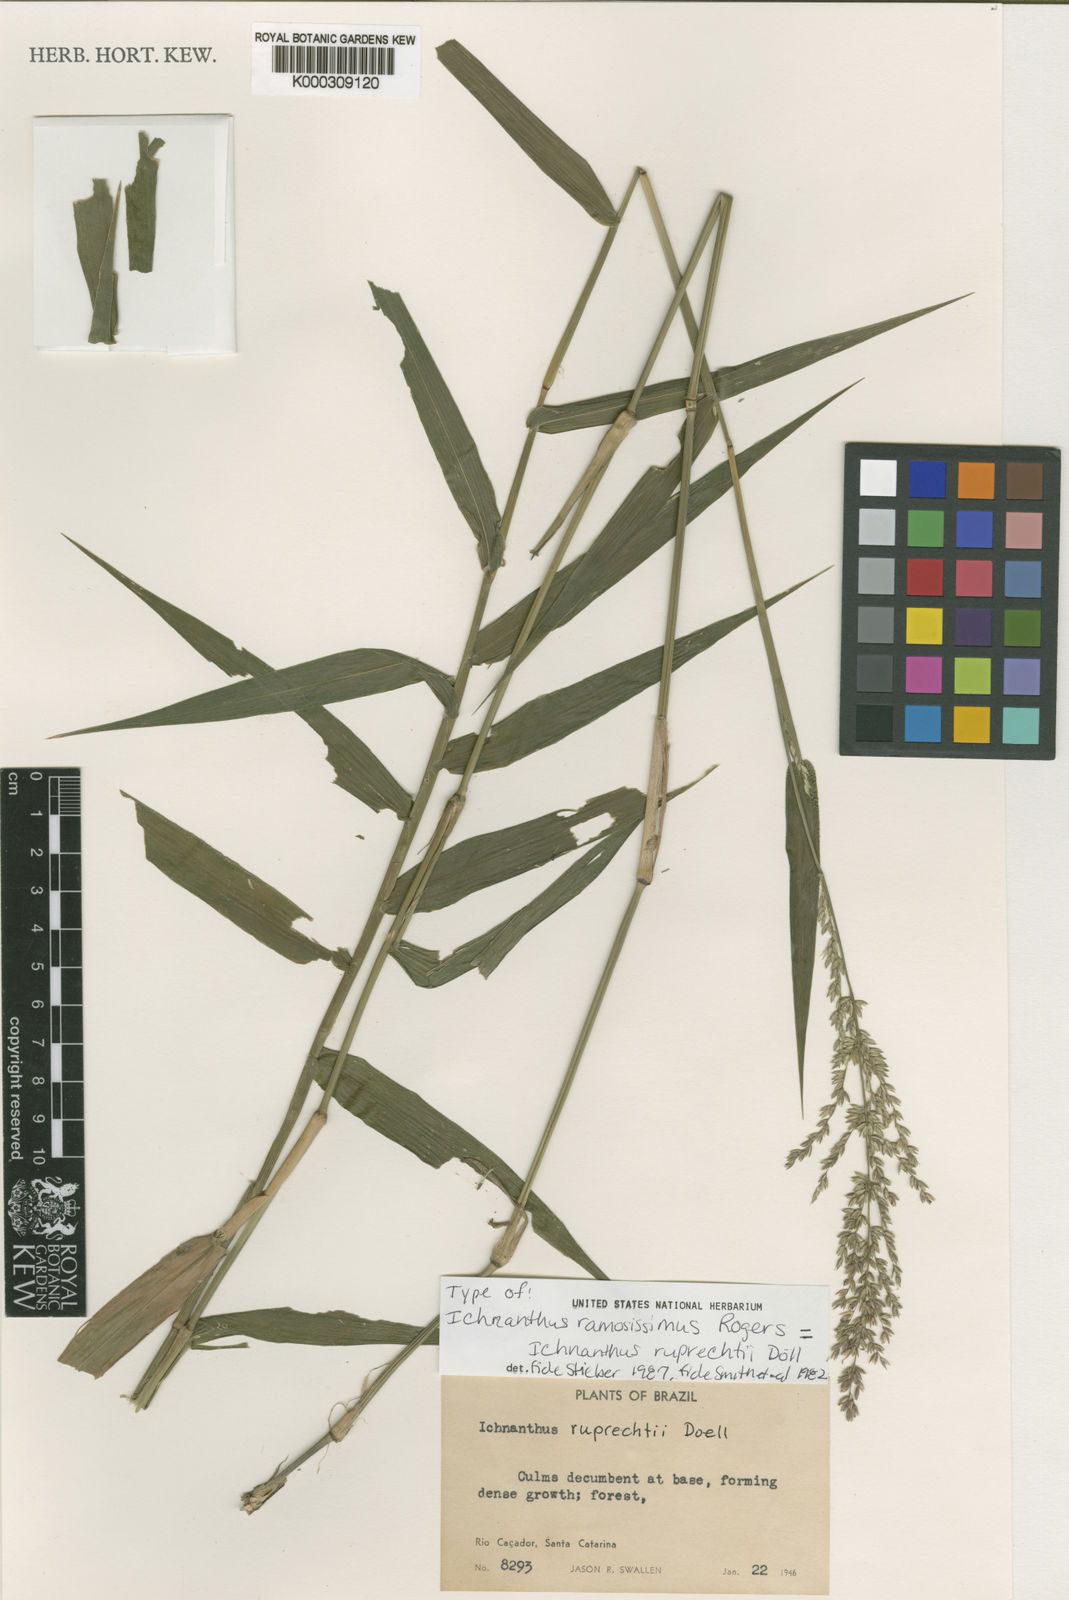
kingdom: Plantae
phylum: Tracheophyta
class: Liliopsida
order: Poales
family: Poaceae
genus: Ichnanthus
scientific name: Ichnanthus
